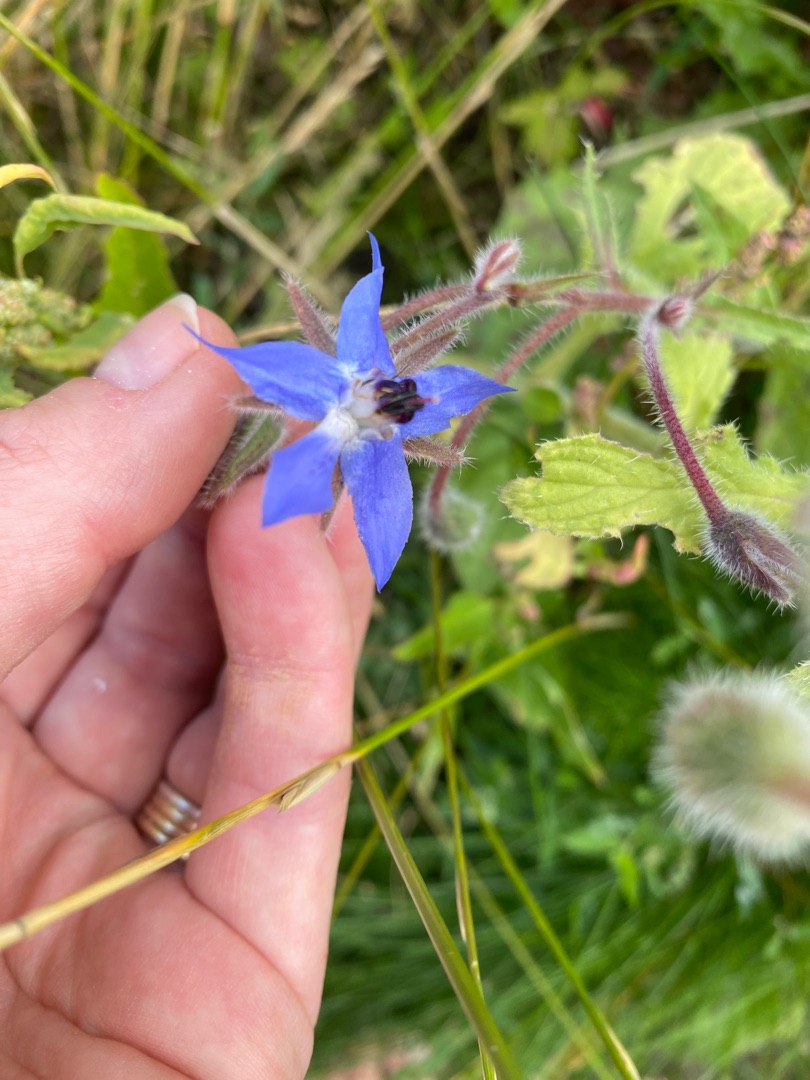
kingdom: Plantae
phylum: Tracheophyta
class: Magnoliopsida
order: Boraginales
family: Boraginaceae
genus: Borago
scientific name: Borago officinalis
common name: Hjulkrone
